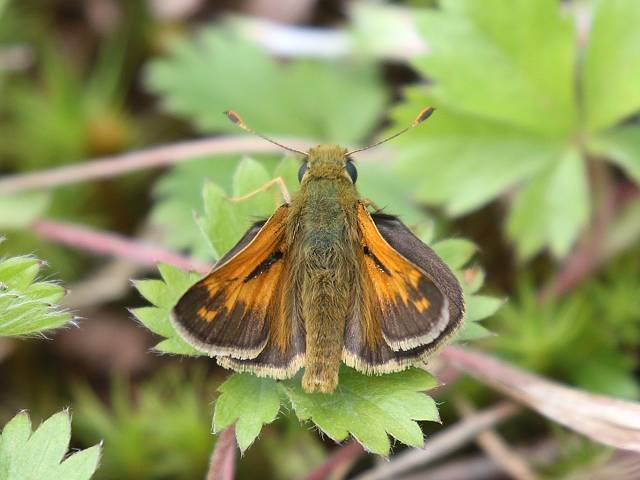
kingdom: Animalia
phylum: Arthropoda
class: Insecta
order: Lepidoptera
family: Hesperiidae
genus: Hesperia
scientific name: Hesperia sassacus
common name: Sassacus Skipper
